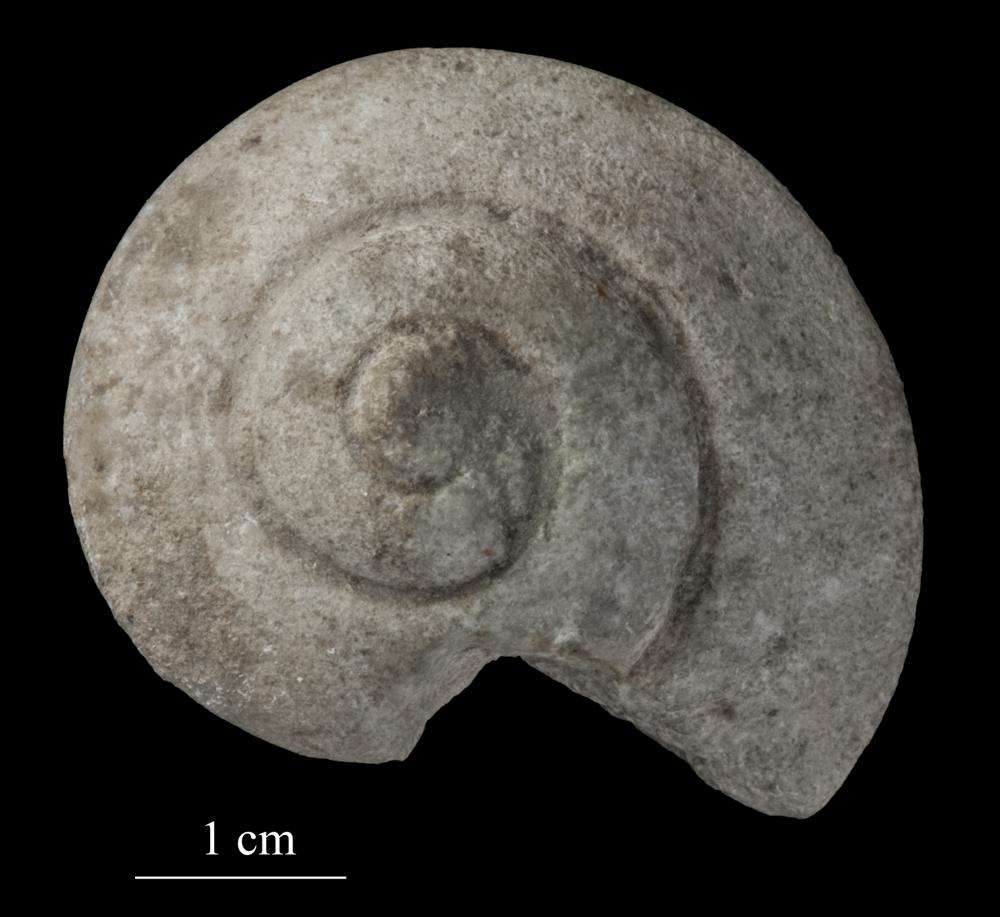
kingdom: Animalia
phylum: Mollusca
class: Gastropoda
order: Neogastropoda
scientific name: Neogastropoda
